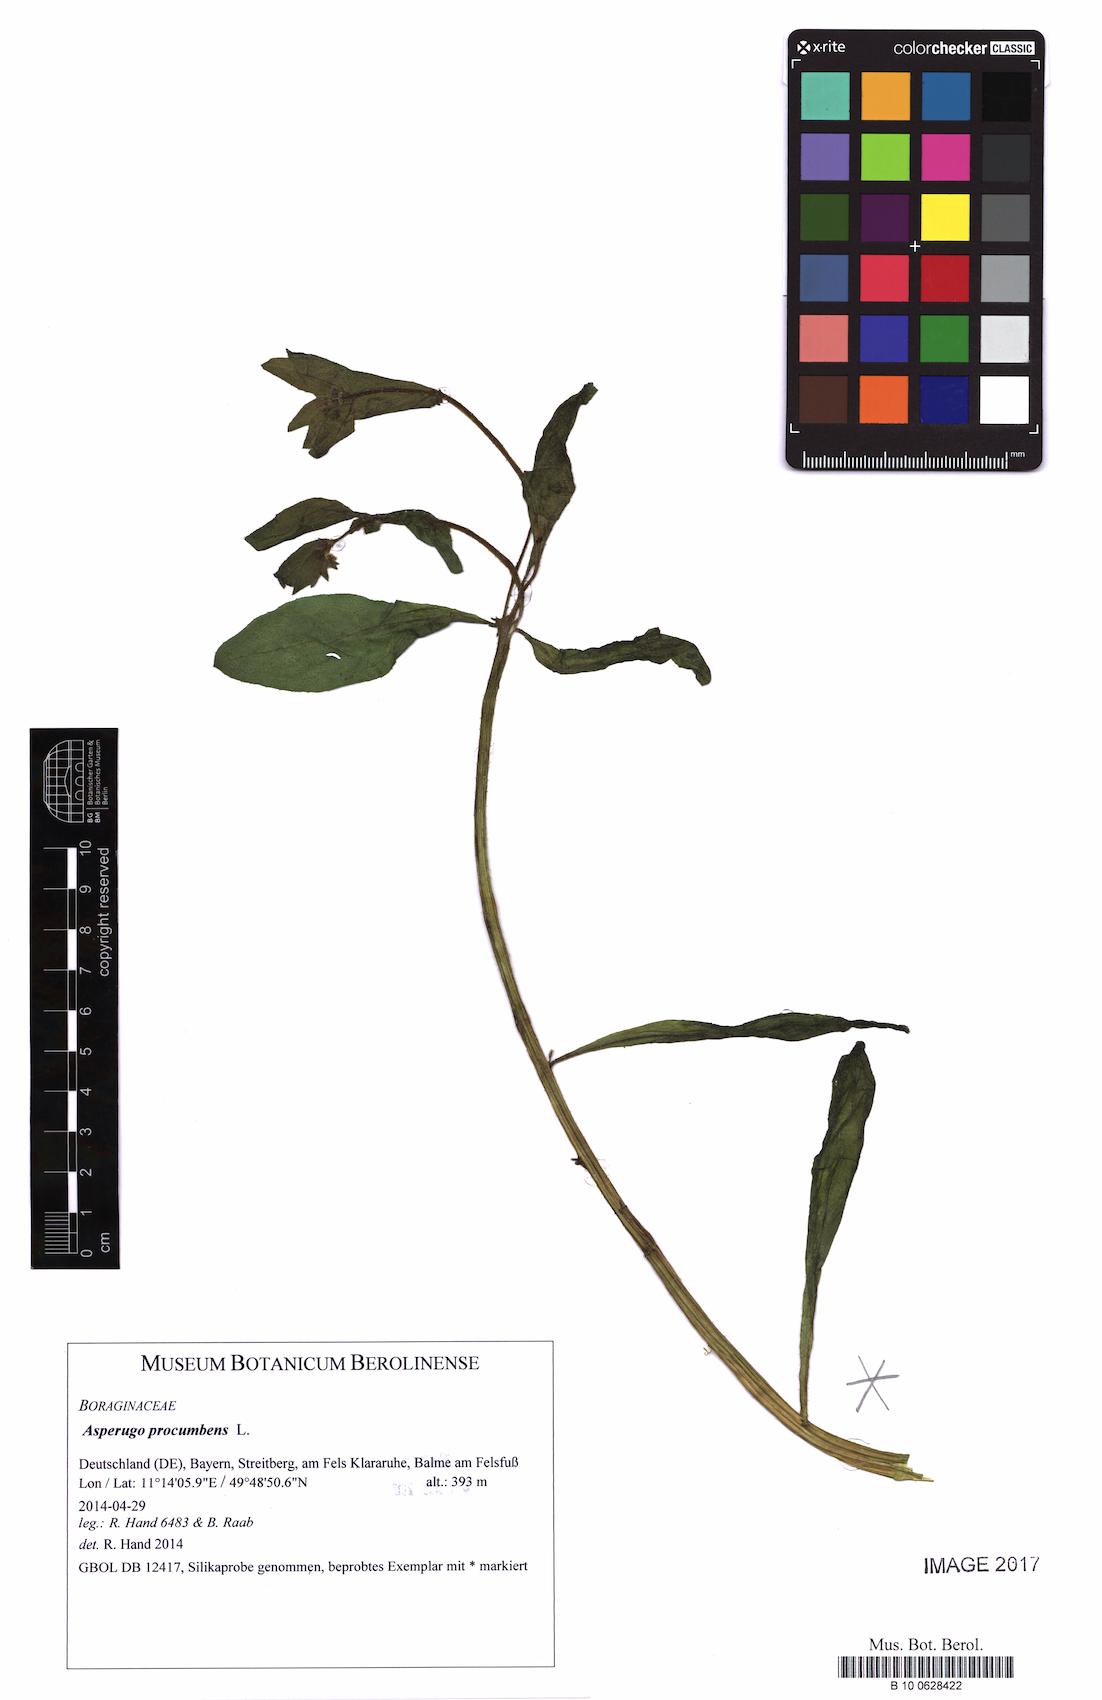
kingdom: Plantae
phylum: Tracheophyta
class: Magnoliopsida
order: Boraginales
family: Boraginaceae
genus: Asperugo
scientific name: Asperugo procumbens
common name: Madwort
